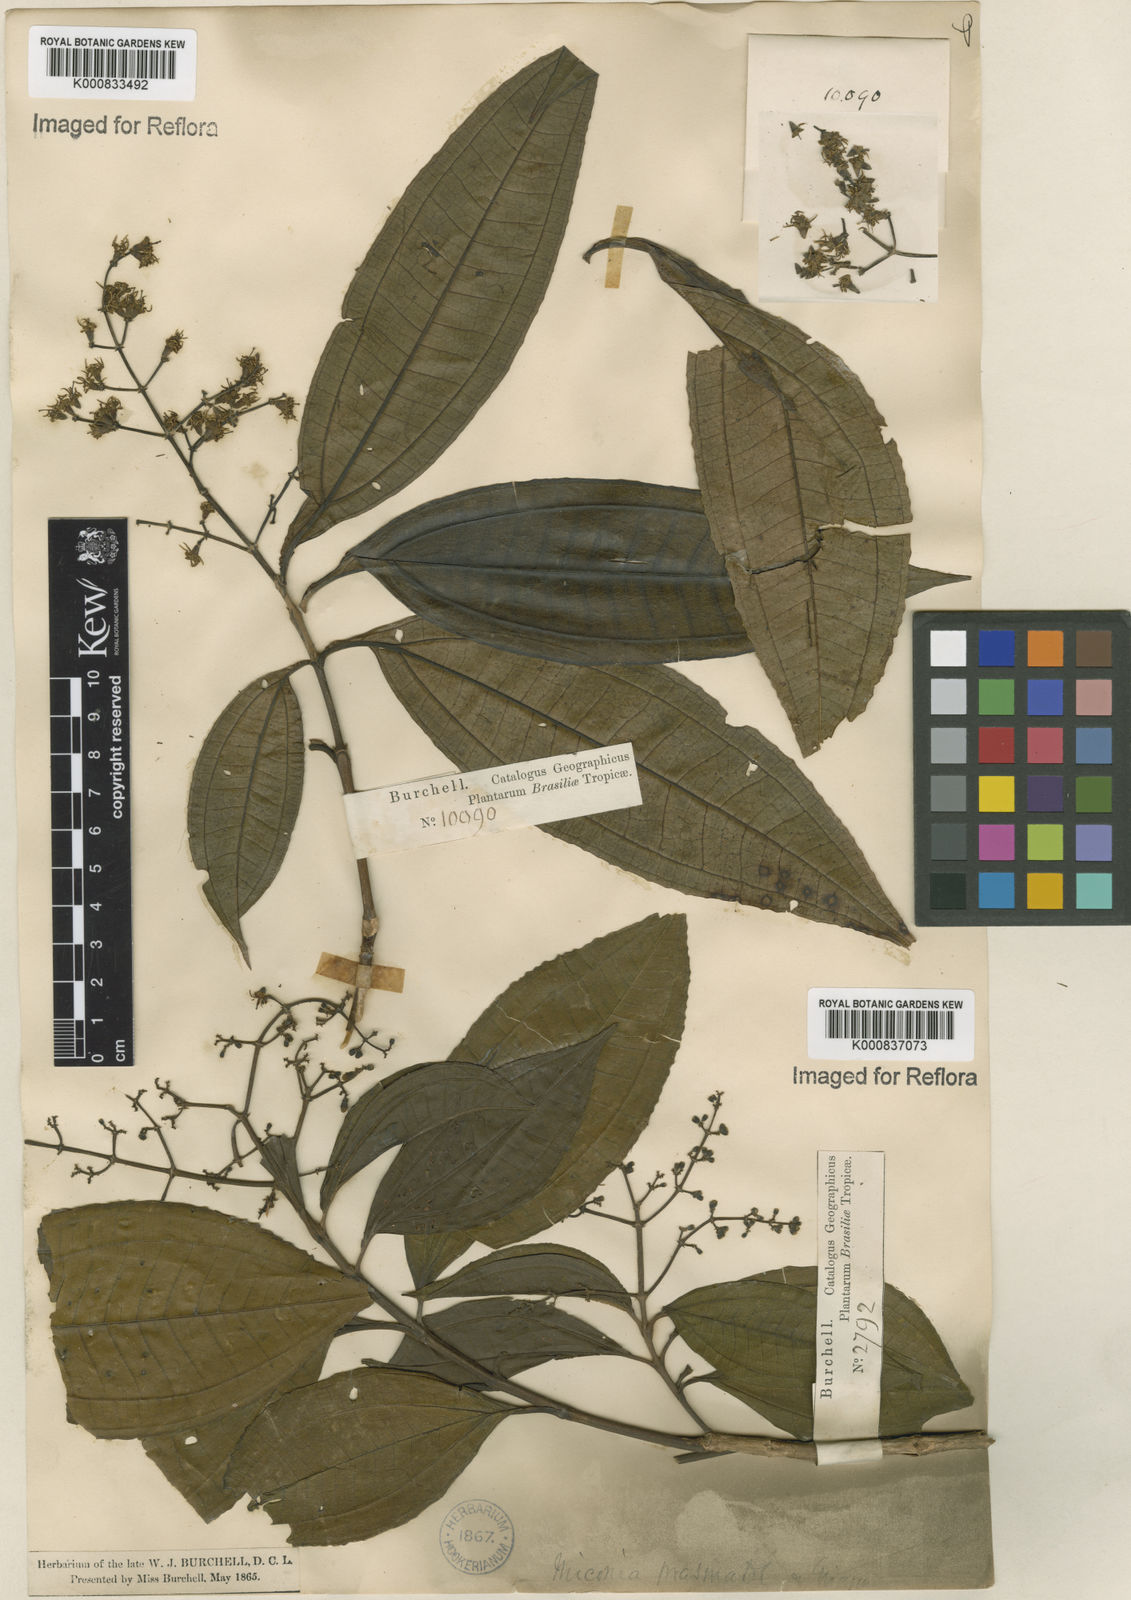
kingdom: Plantae
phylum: Tracheophyta
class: Magnoliopsida
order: Myrtales
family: Melastomataceae
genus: Miconia
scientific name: Miconia prasina
